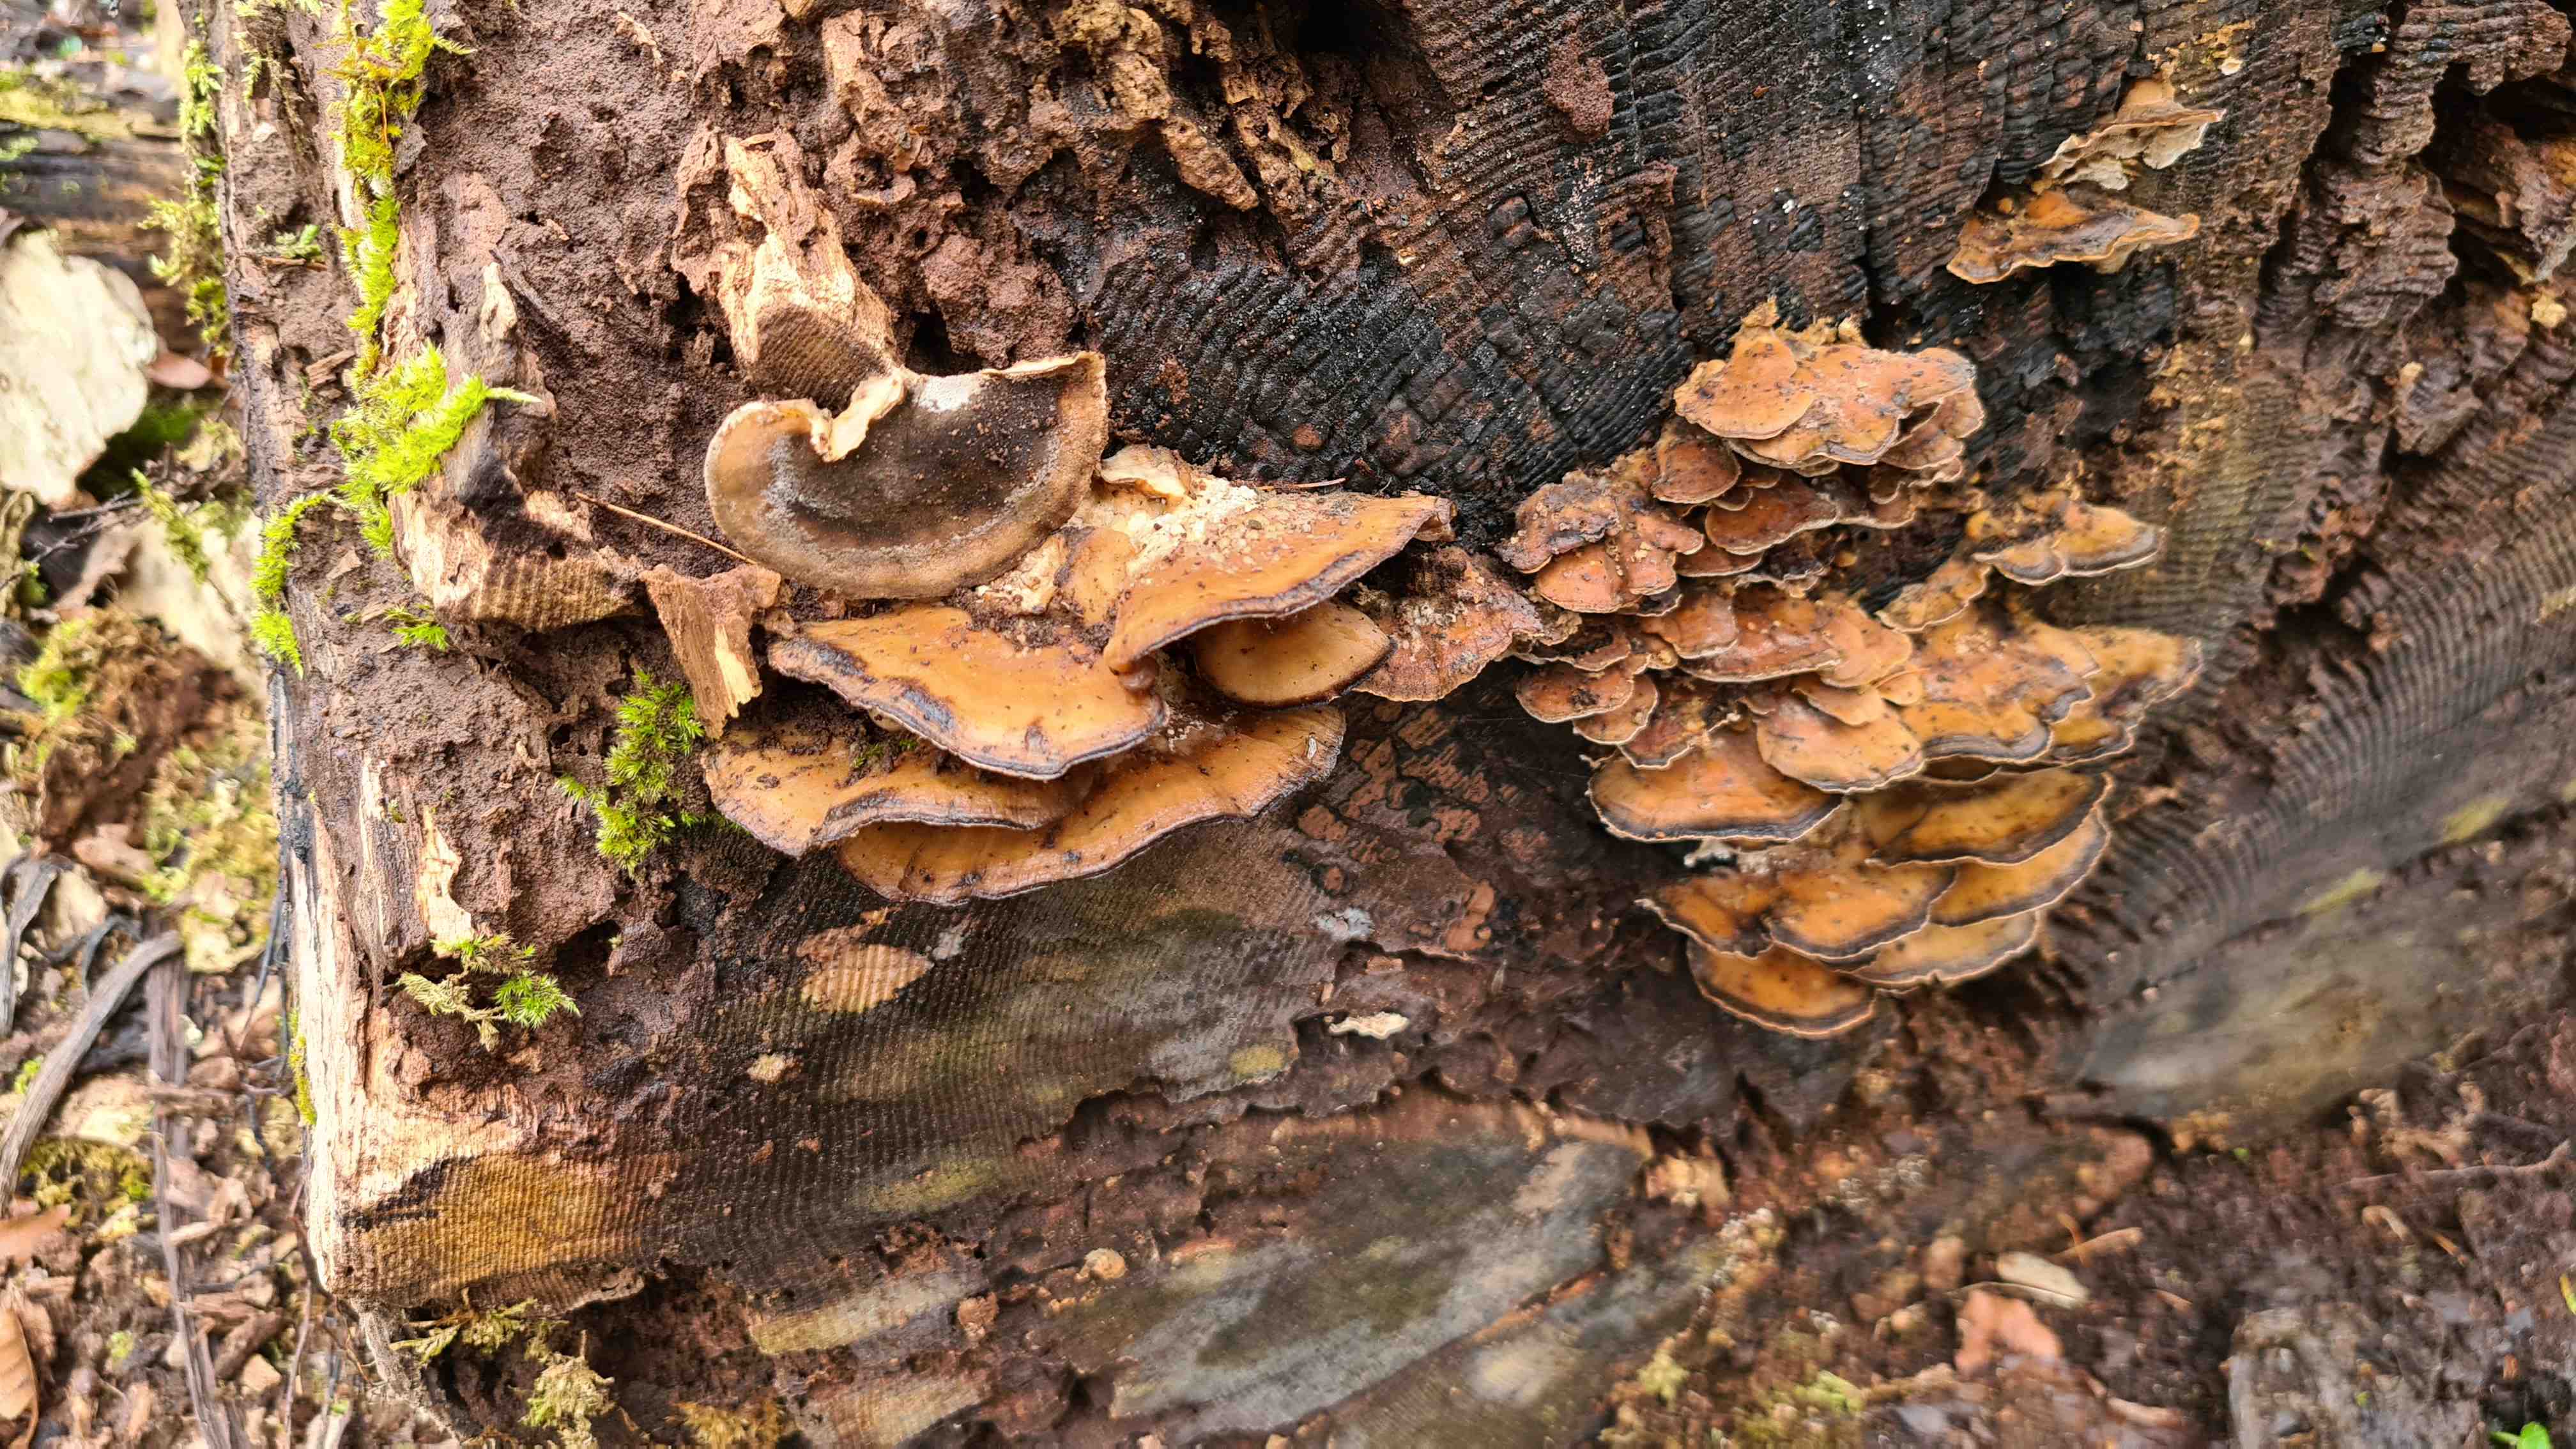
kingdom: Fungi
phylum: Basidiomycota
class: Agaricomycetes
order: Polyporales
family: Phanerochaetaceae
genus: Bjerkandera
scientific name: Bjerkandera fumosa
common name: grågul sodporesvamp
